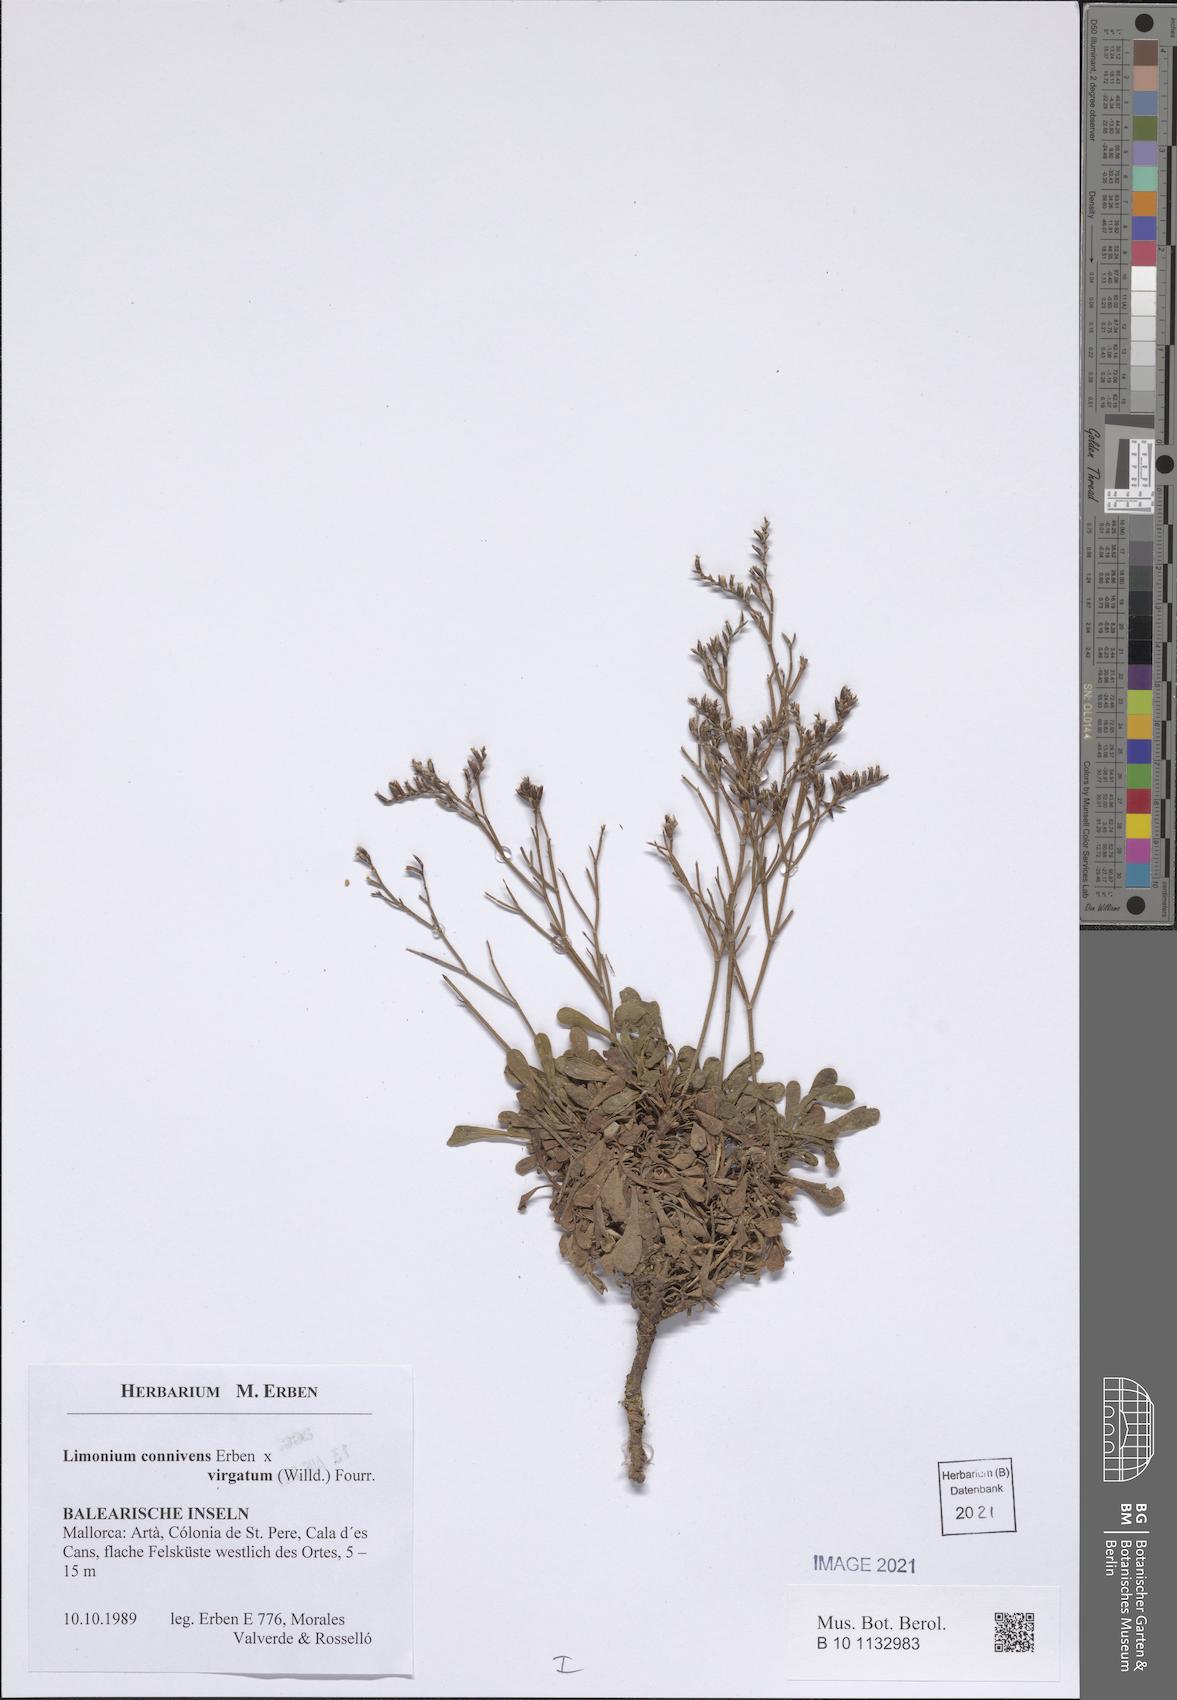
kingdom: Plantae
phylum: Tracheophyta
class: Magnoliopsida
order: Caryophyllales
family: Plumbaginaceae
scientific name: Plumbaginaceae
